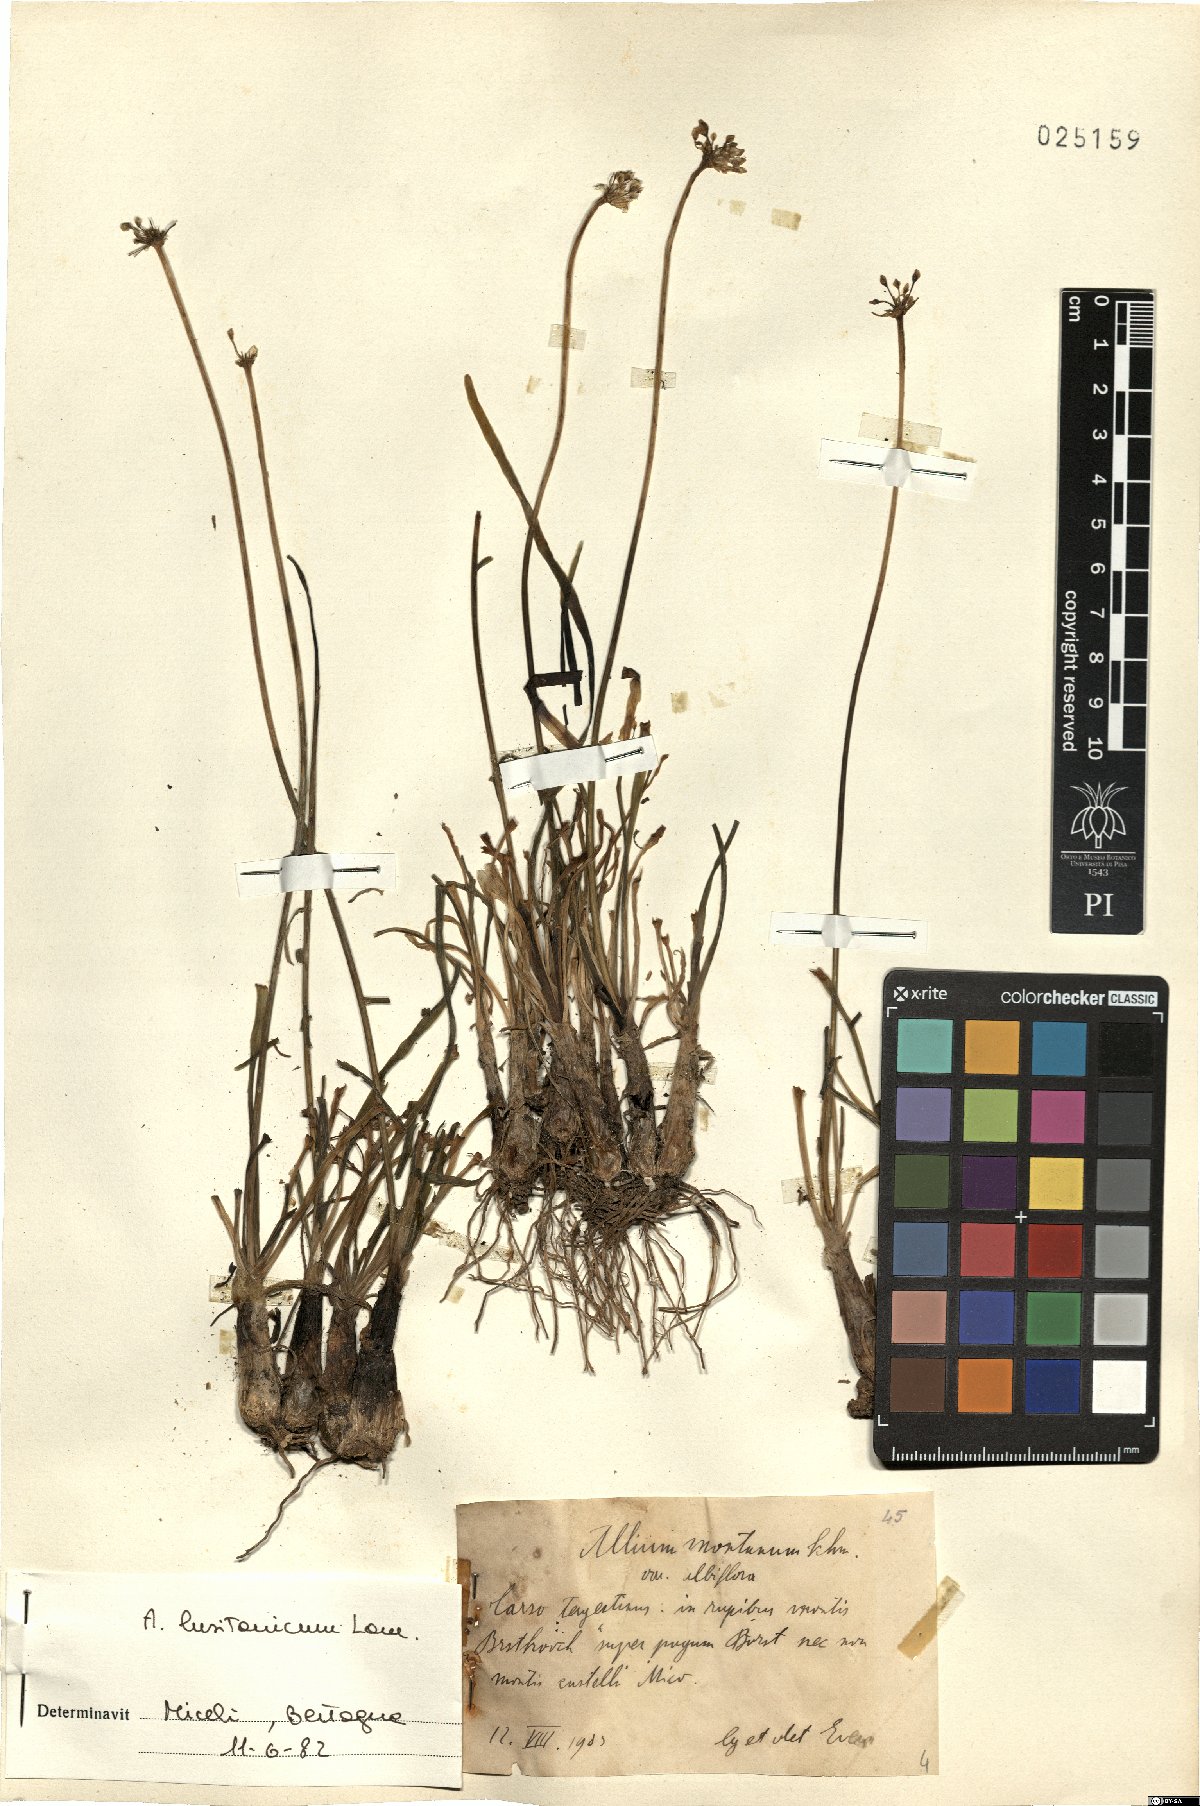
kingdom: Plantae
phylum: Tracheophyta
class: Liliopsida
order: Asparagales
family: Amaryllidaceae
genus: Allium
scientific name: Allium lusitanicum
